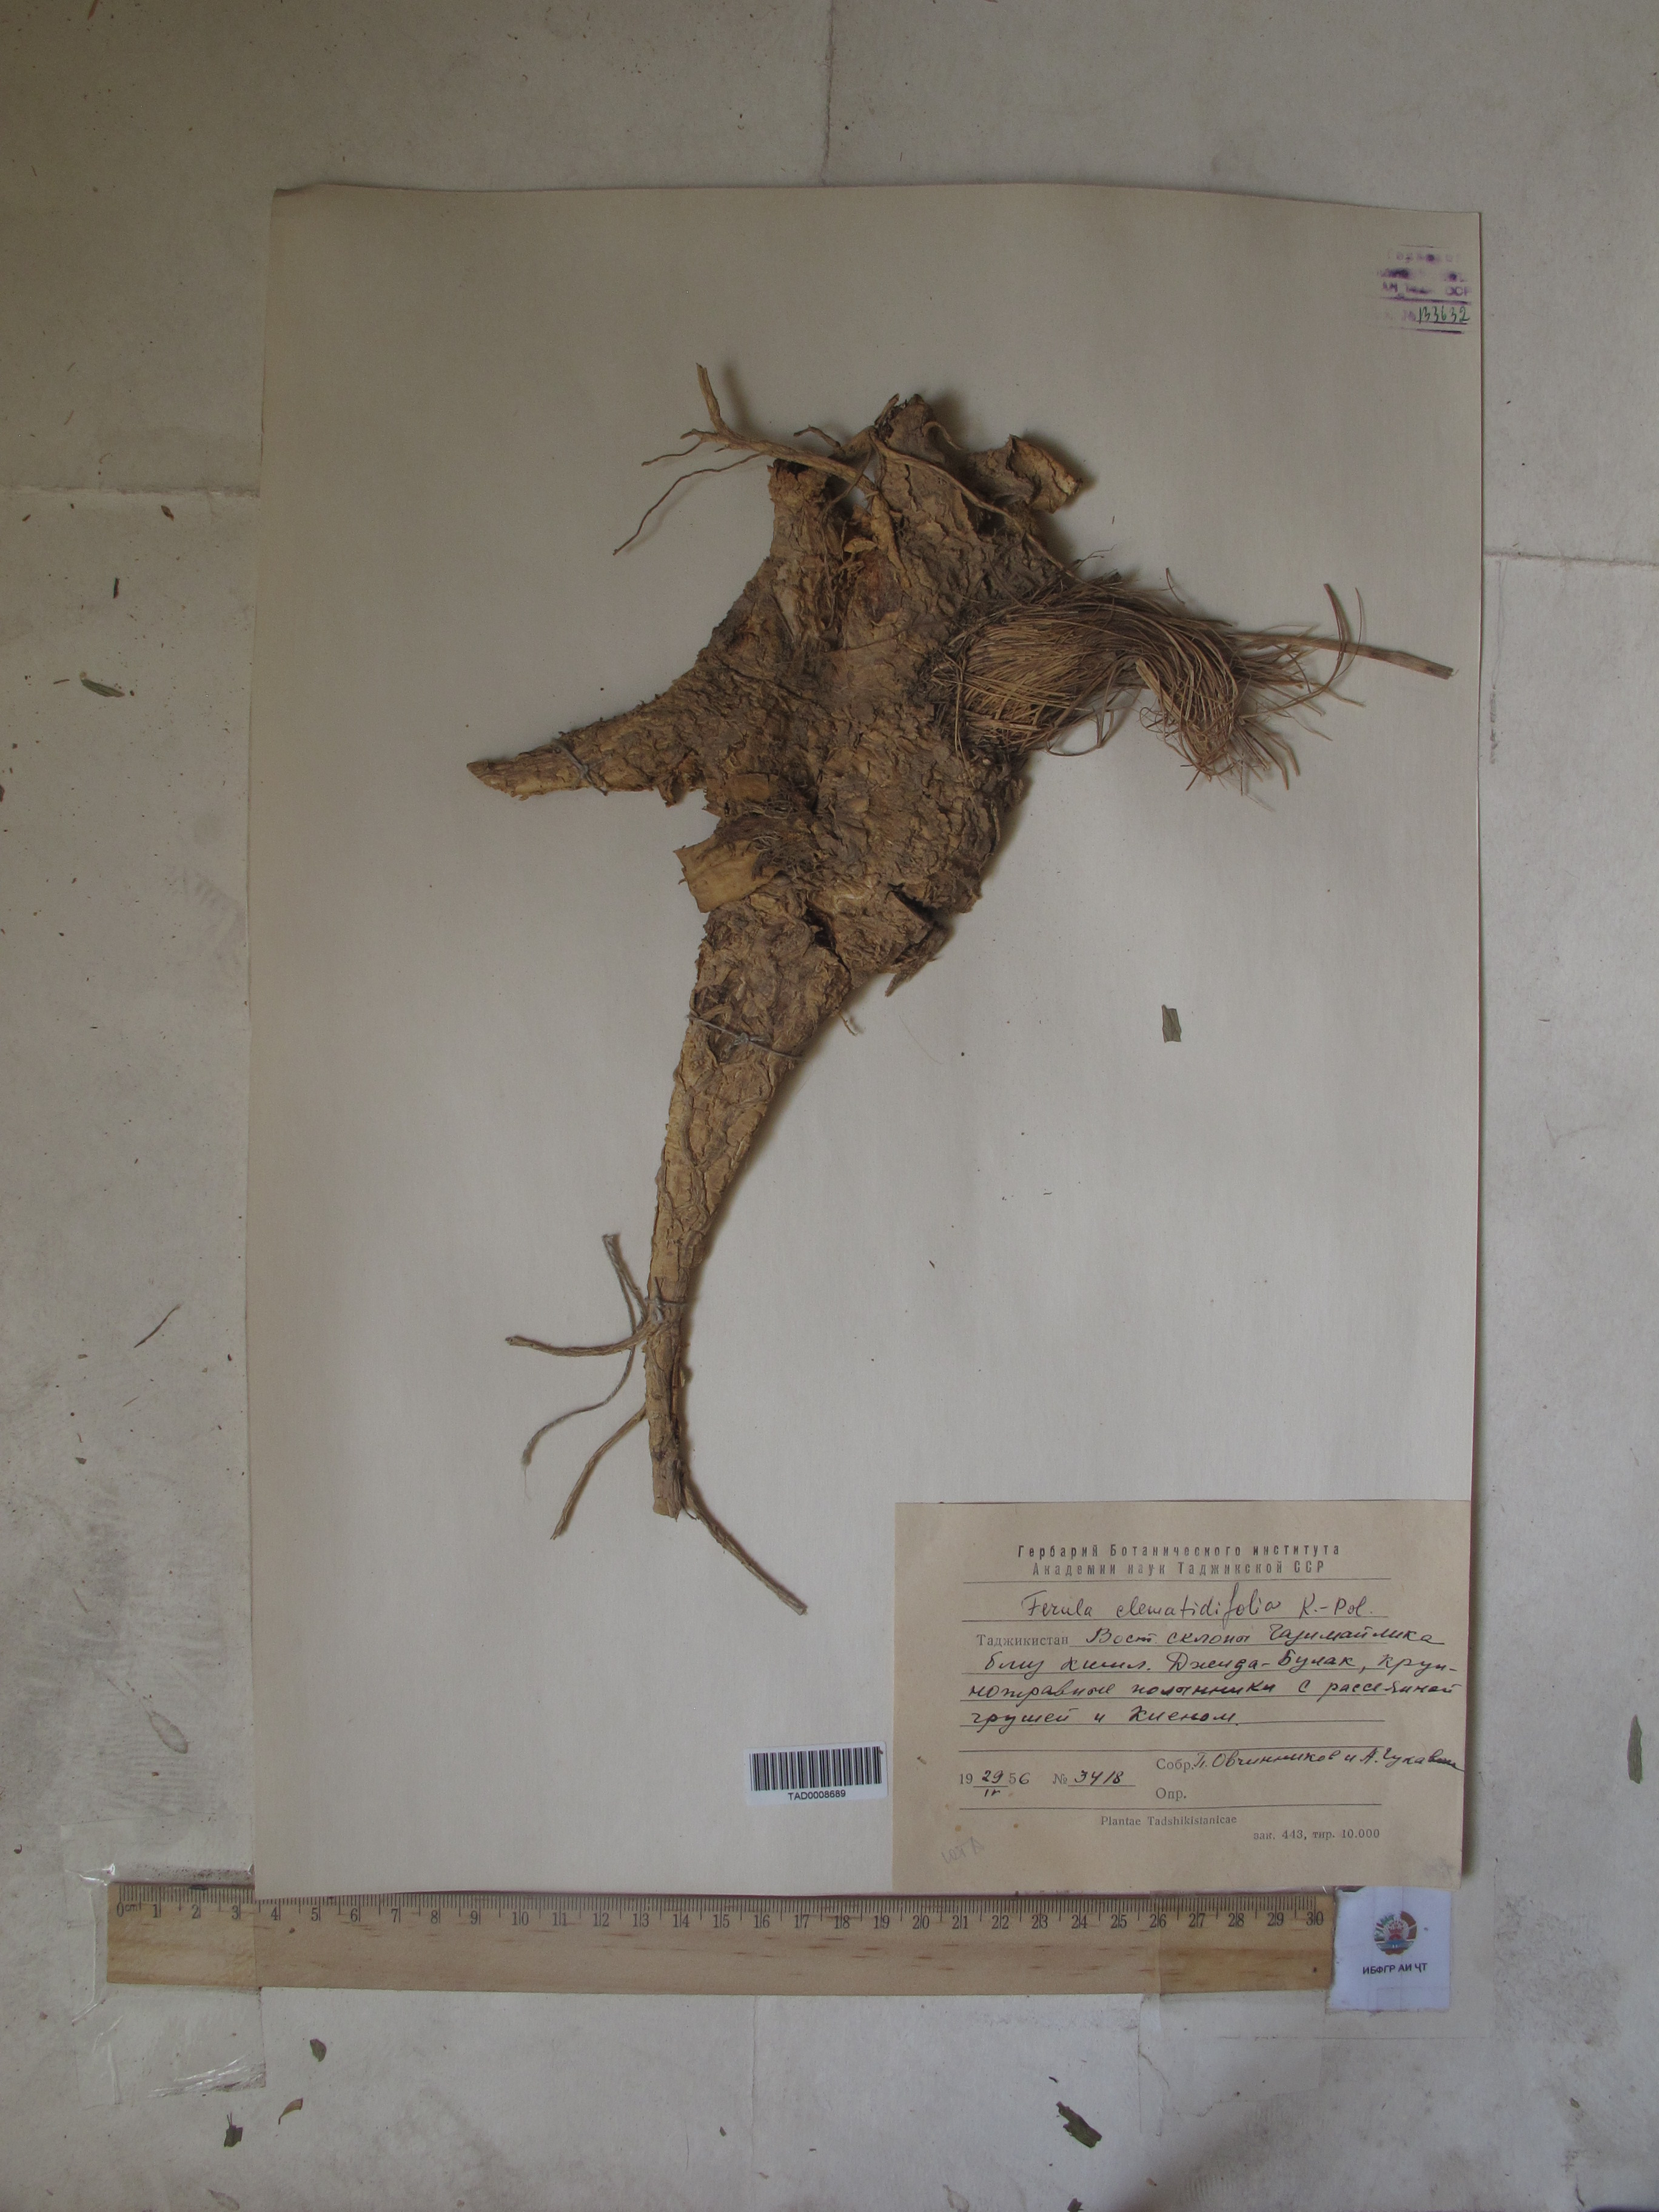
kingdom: Plantae
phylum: Tracheophyta
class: Magnoliopsida
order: Apiales
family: Apiaceae
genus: Ferula
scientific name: Ferula clematidifolia
